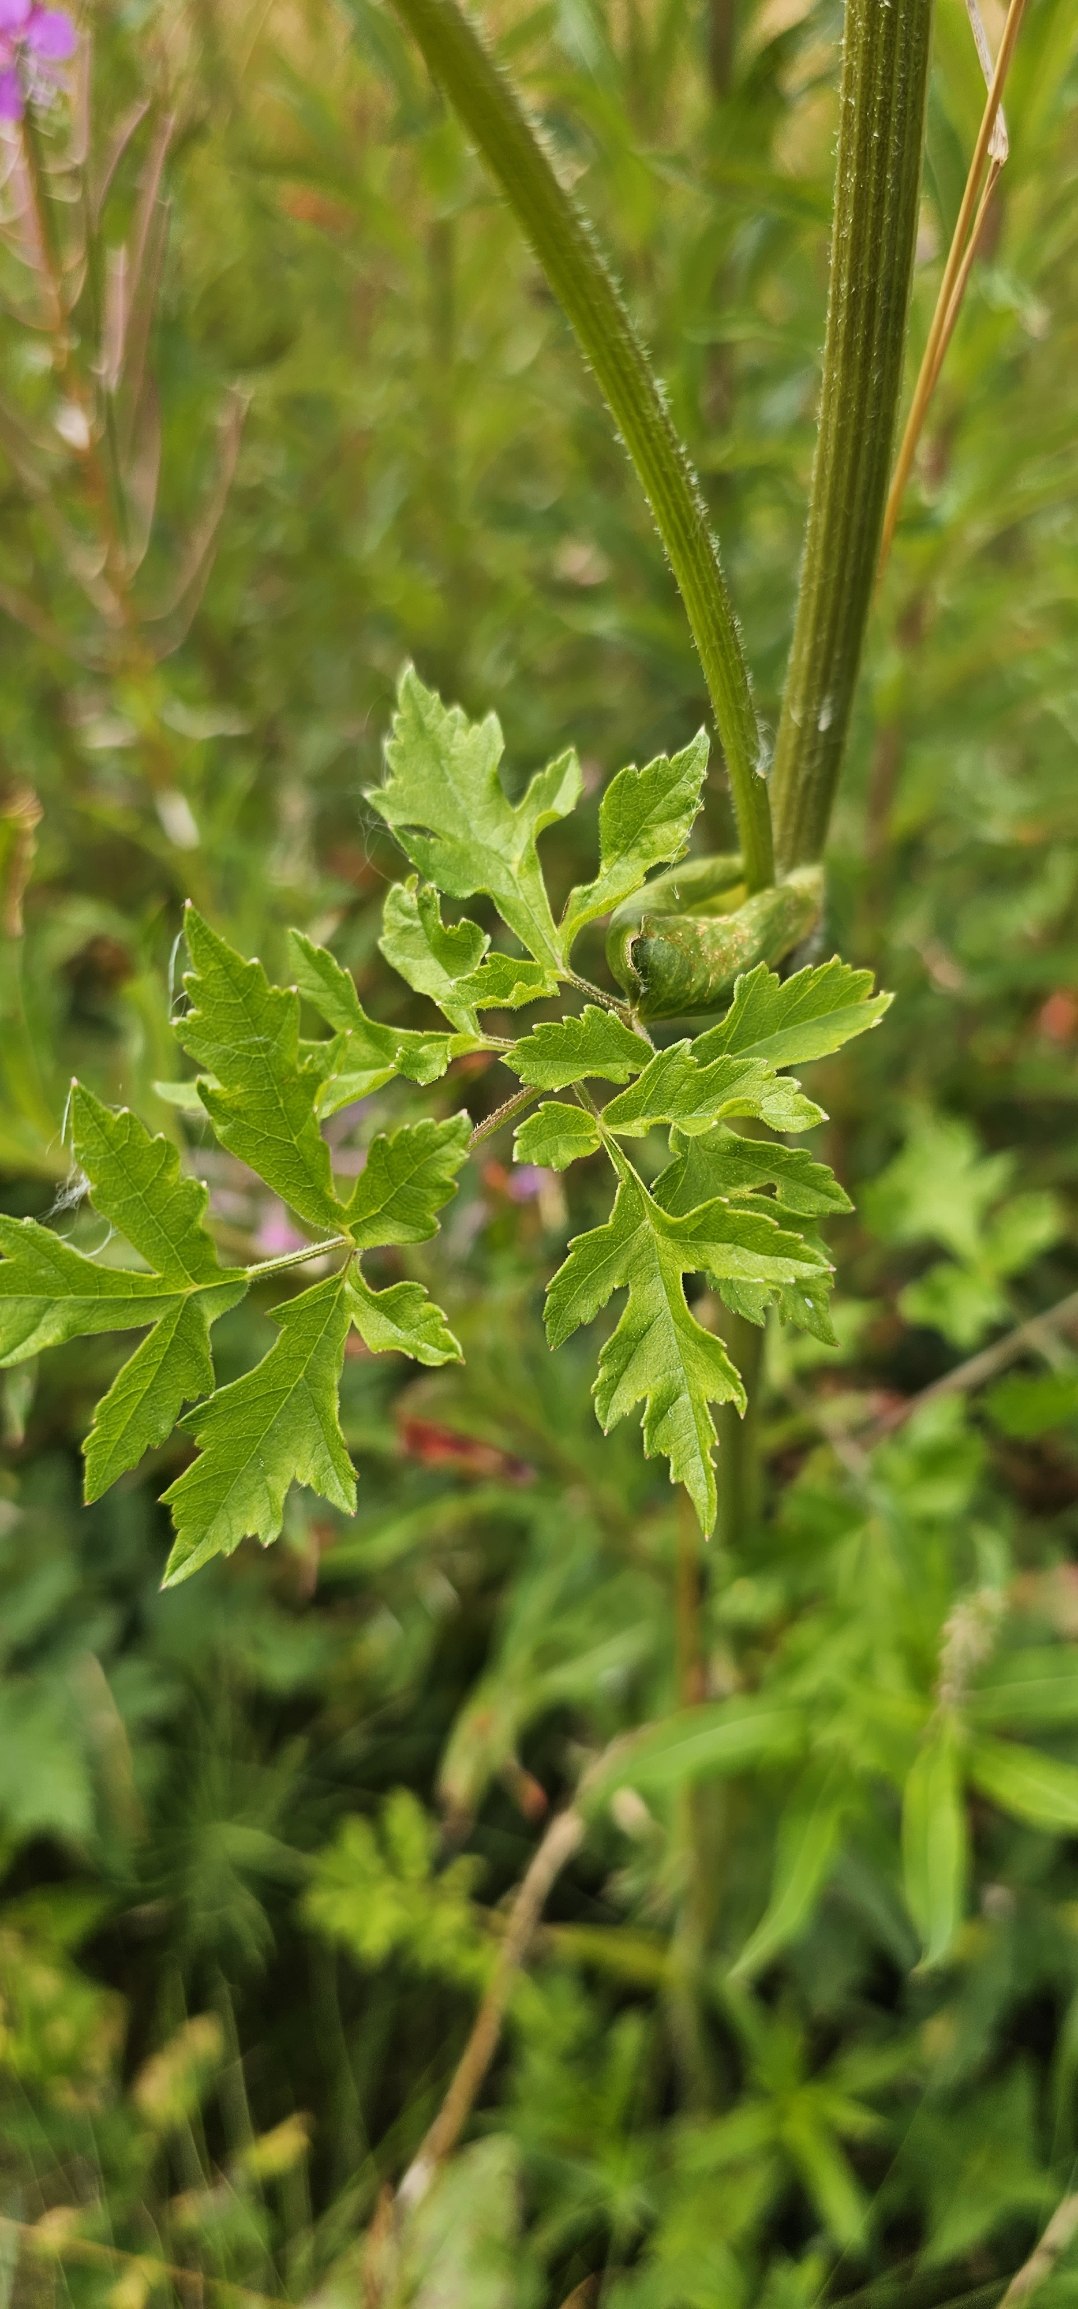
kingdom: Plantae
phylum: Tracheophyta
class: Magnoliopsida
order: Apiales
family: Apiaceae
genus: Heracleum
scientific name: Heracleum sphondylium
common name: Almindelig bjørneklo
